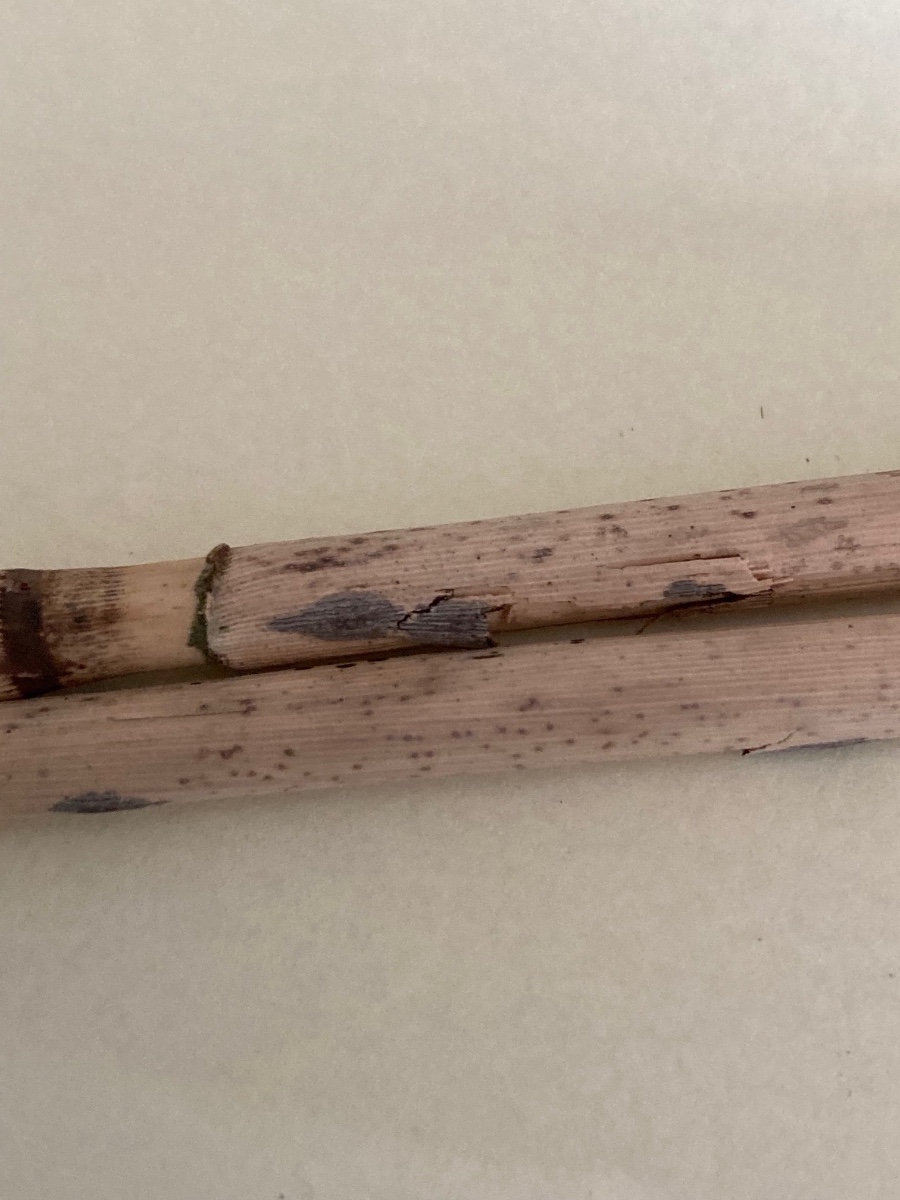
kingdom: Fungi
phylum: Ascomycota
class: Dothideomycetes
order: Dothideales
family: Dothideaceae
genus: Scirrhia
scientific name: Scirrhia rimosa
